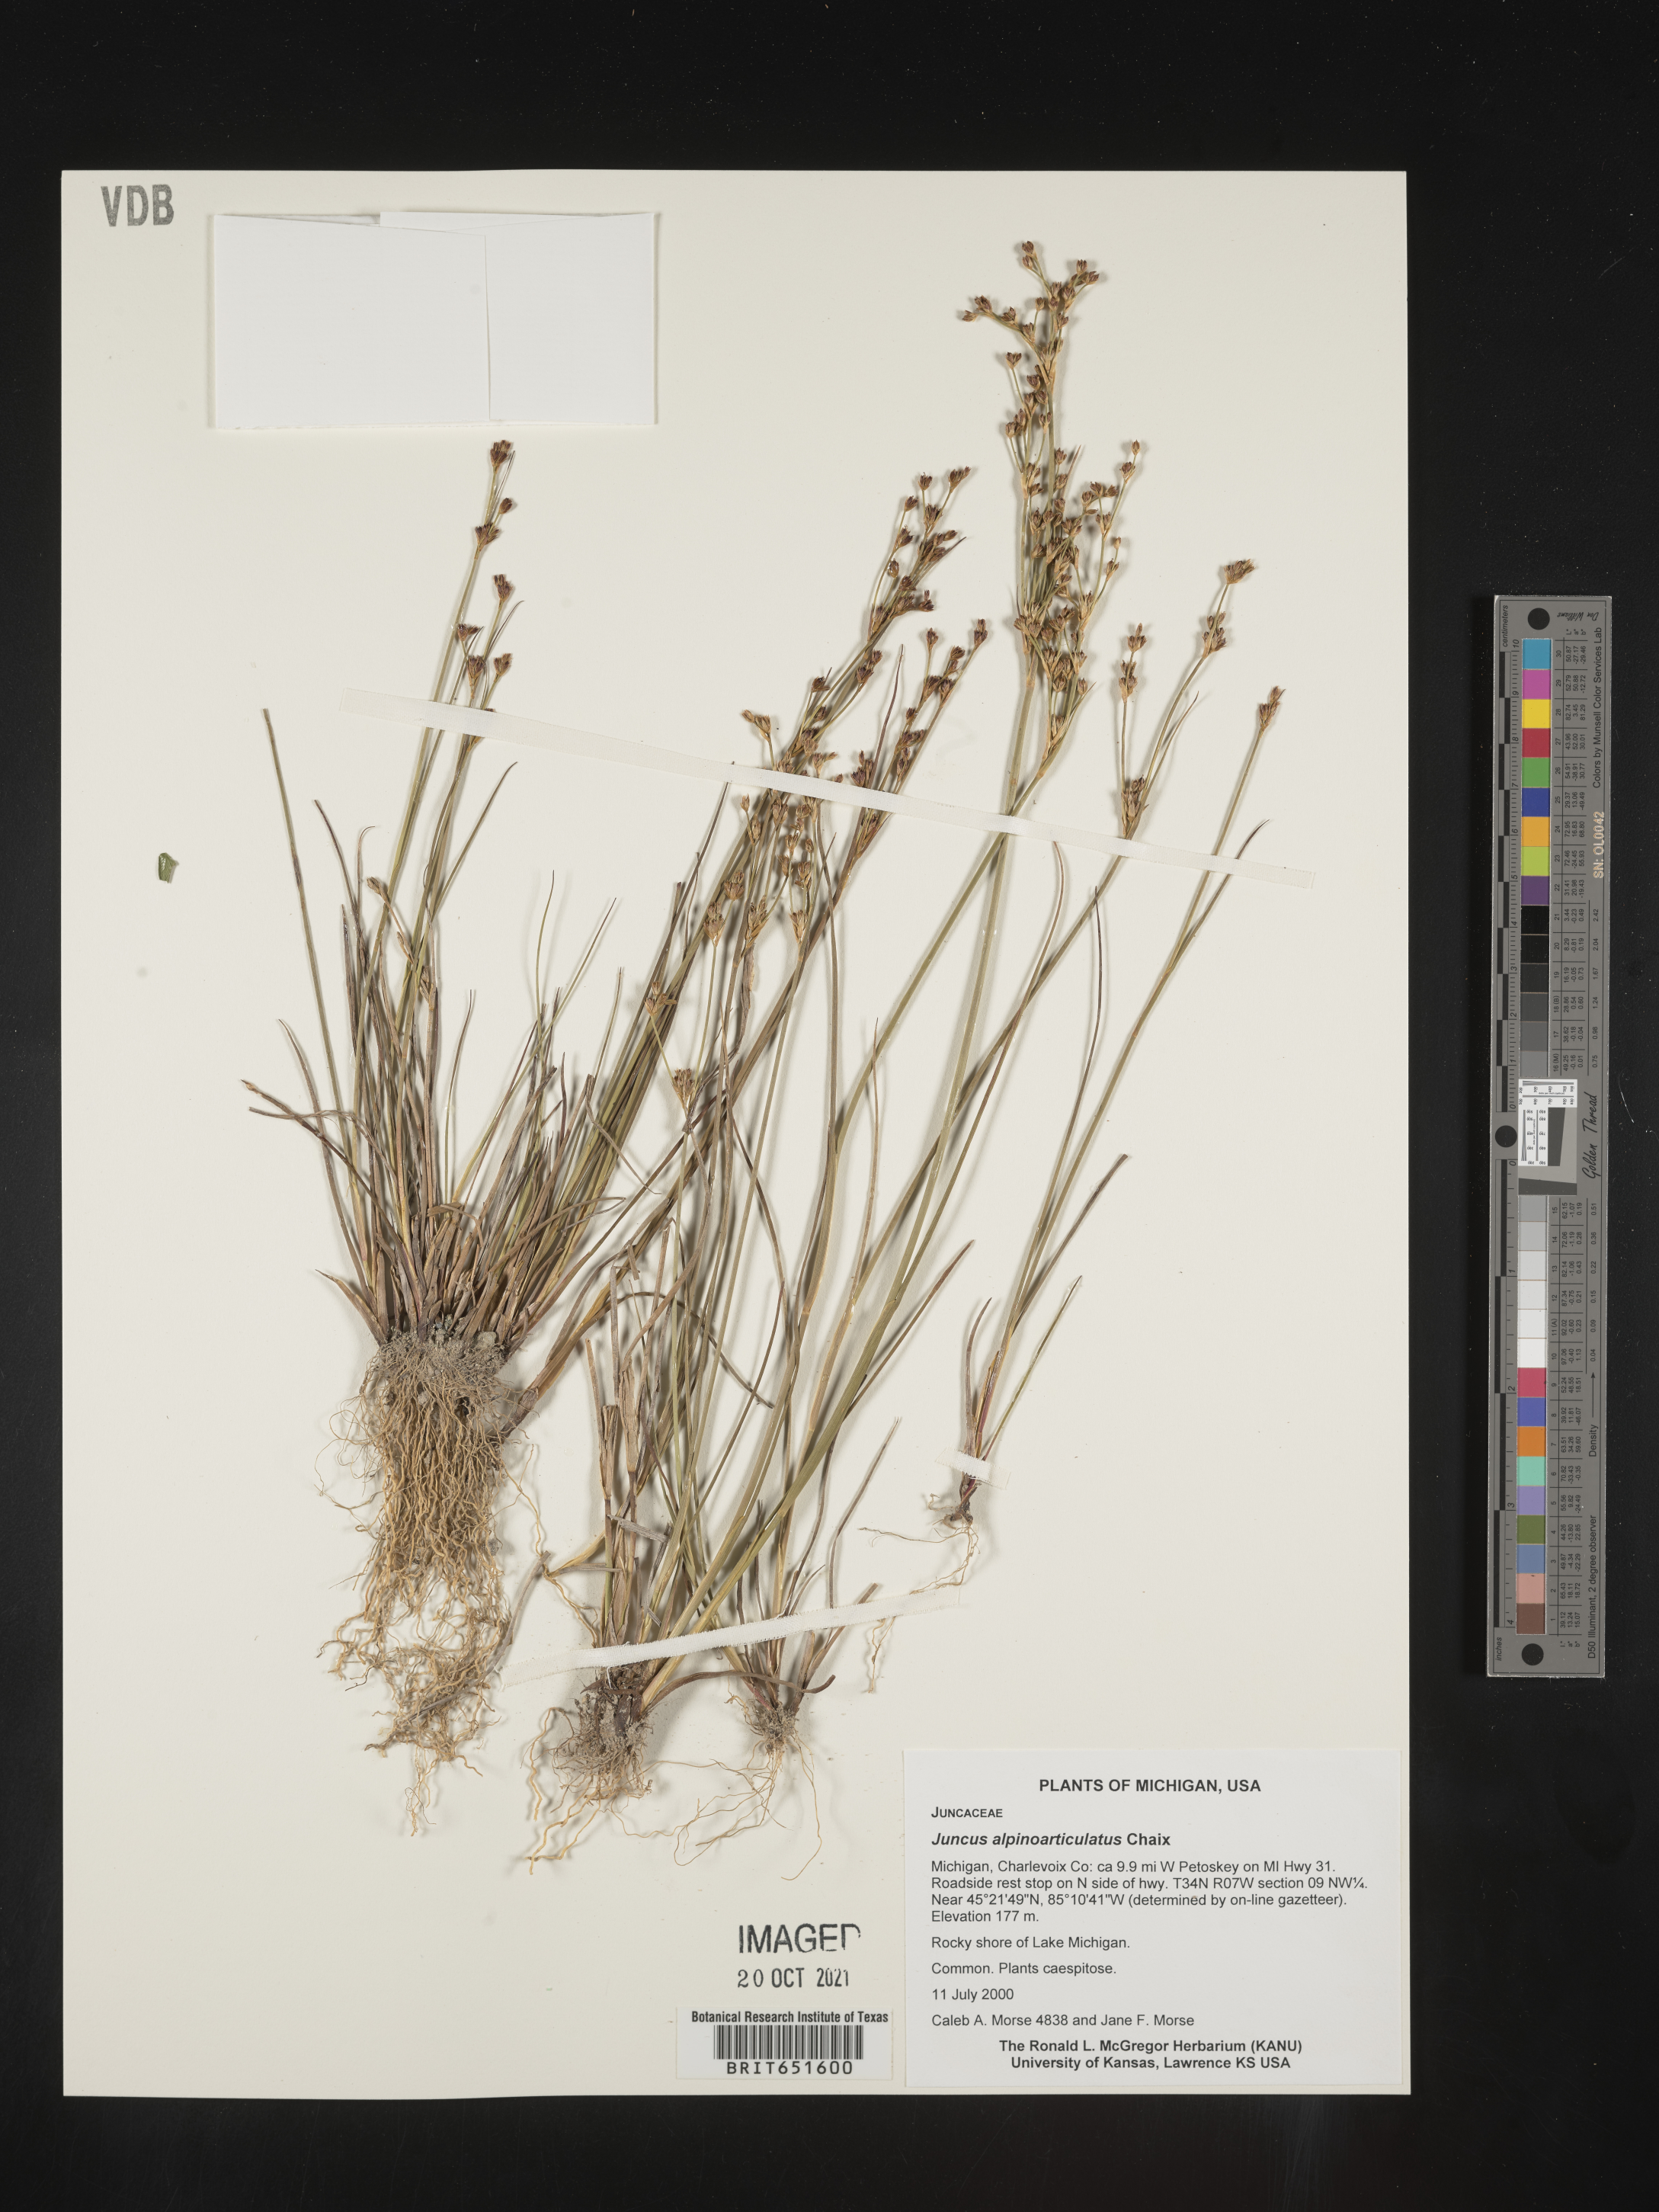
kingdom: Plantae
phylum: Tracheophyta
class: Liliopsida
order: Poales
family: Juncaceae
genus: Juncus
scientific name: Juncus alpinoarticulatus
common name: Alpine rush
